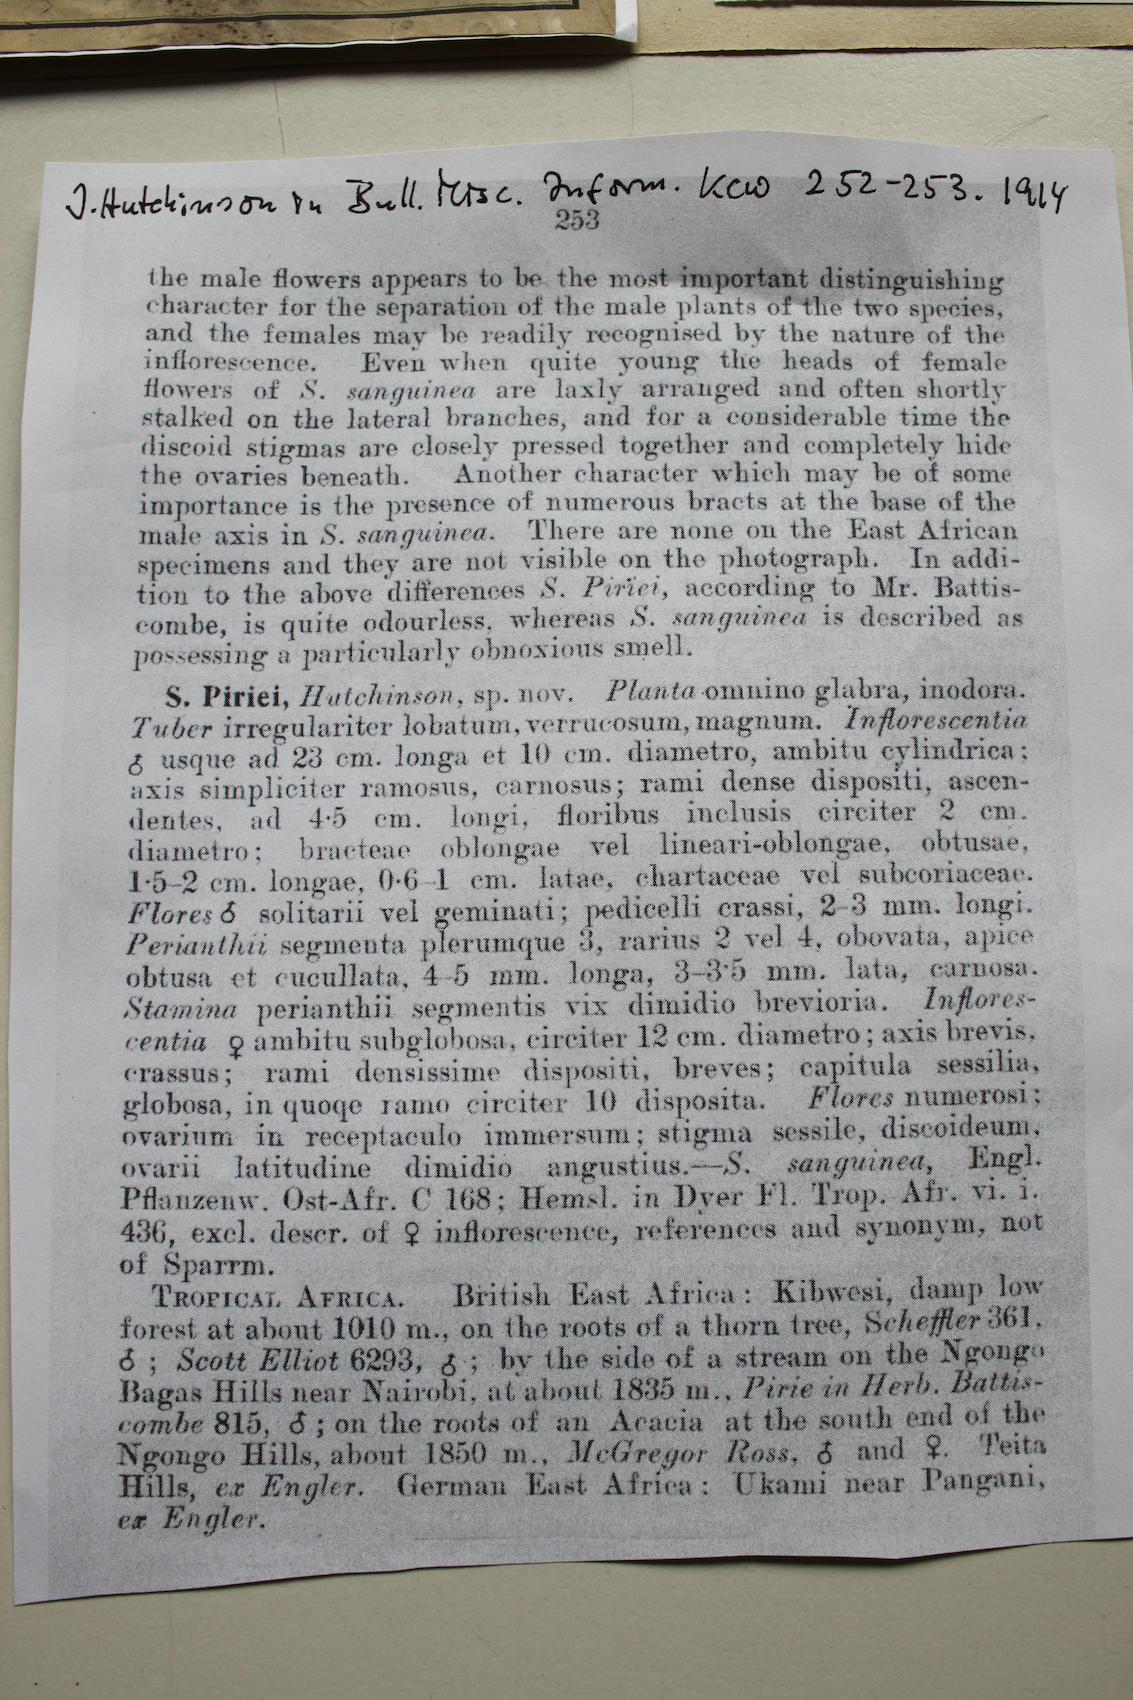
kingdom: Plantae
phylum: Tracheophyta
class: Magnoliopsida
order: Santalales
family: Balanophoraceae
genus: Sarcophyte
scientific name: Sarcophyte piriei
